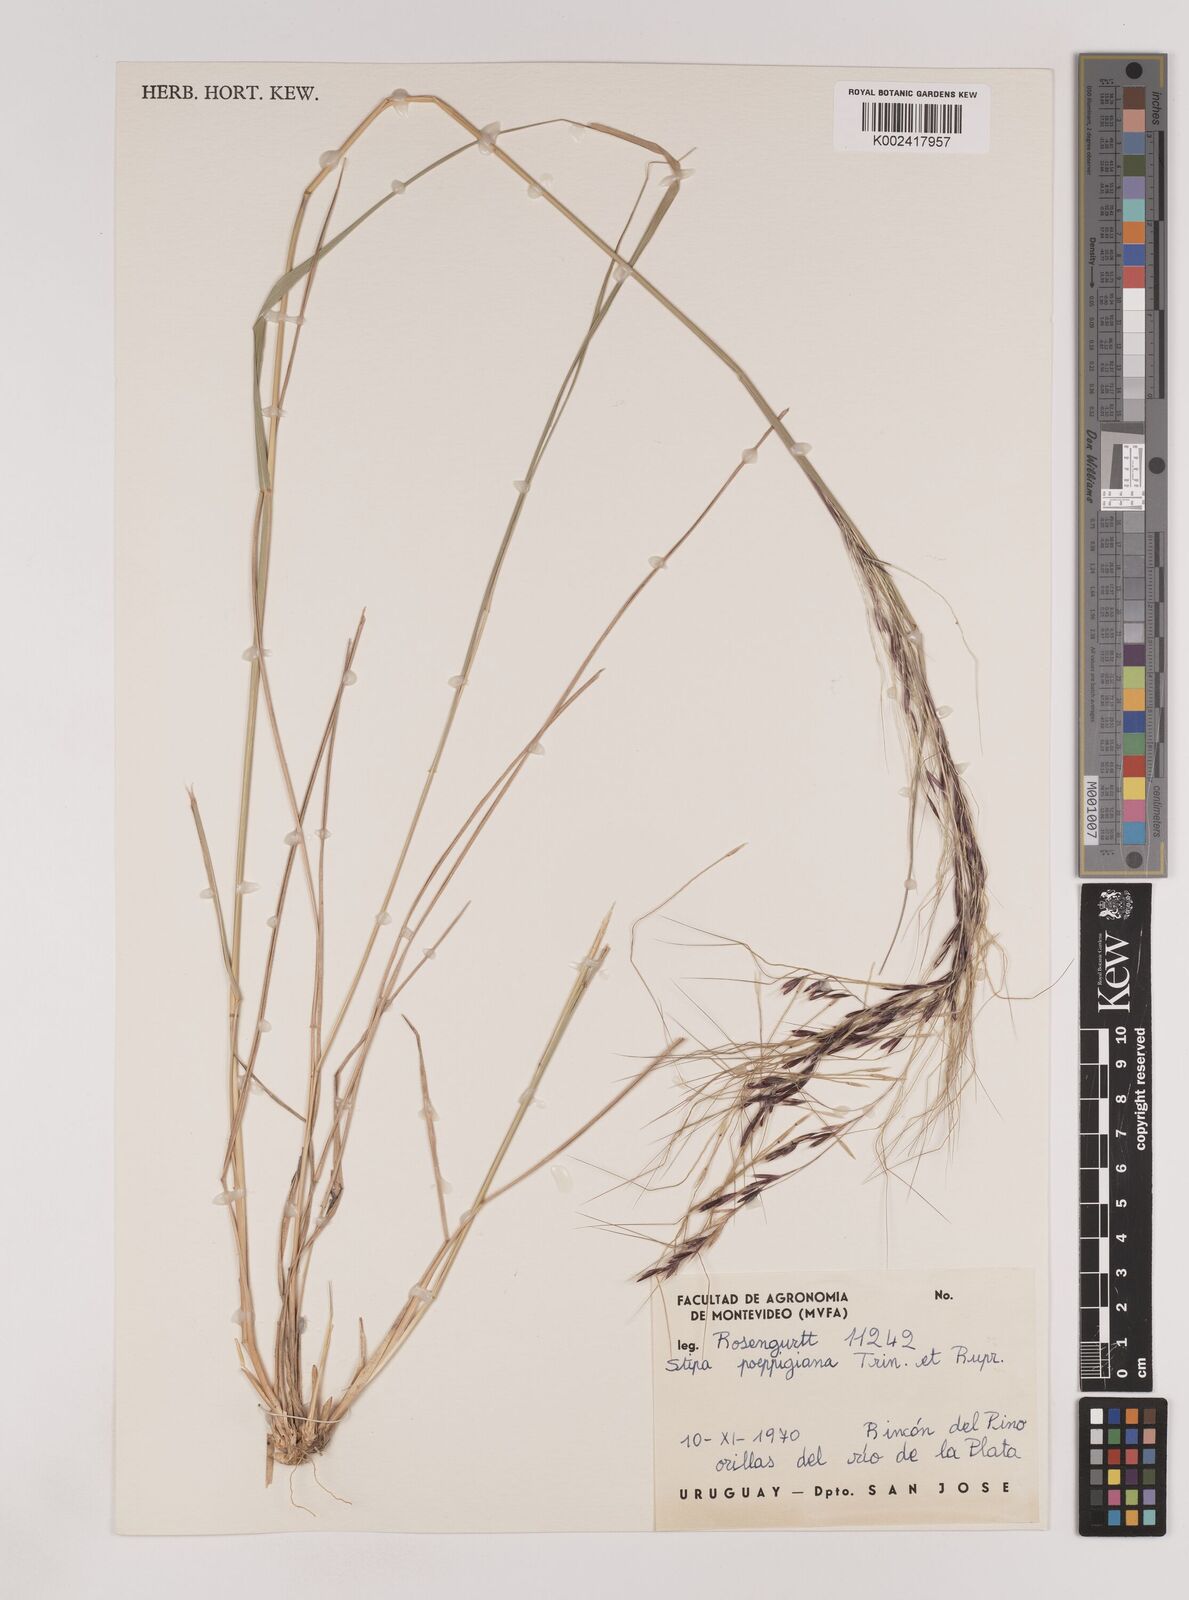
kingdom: Plantae
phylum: Tracheophyta
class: Liliopsida
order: Poales
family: Poaceae
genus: Nassella
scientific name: Nassella poeppigiana
